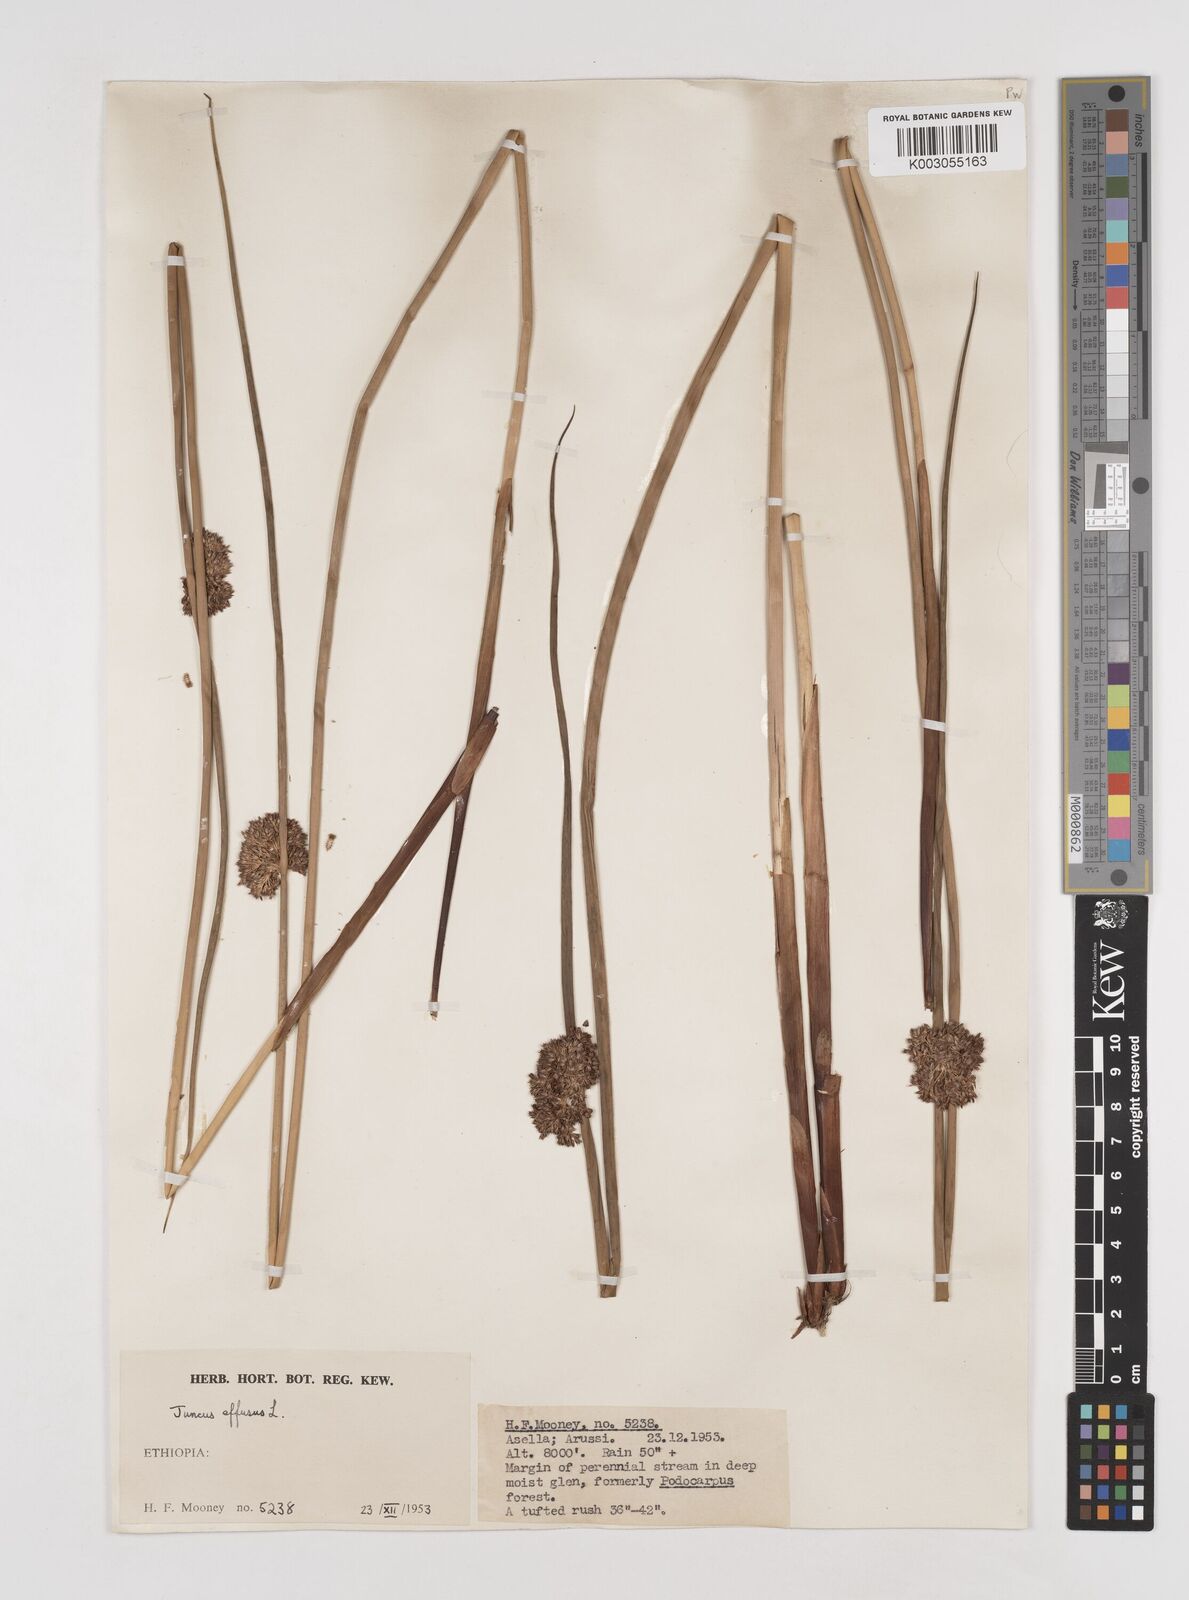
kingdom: Plantae
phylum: Tracheophyta
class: Liliopsida
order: Poales
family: Juncaceae
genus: Juncus
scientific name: Juncus effusus
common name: Soft rush
